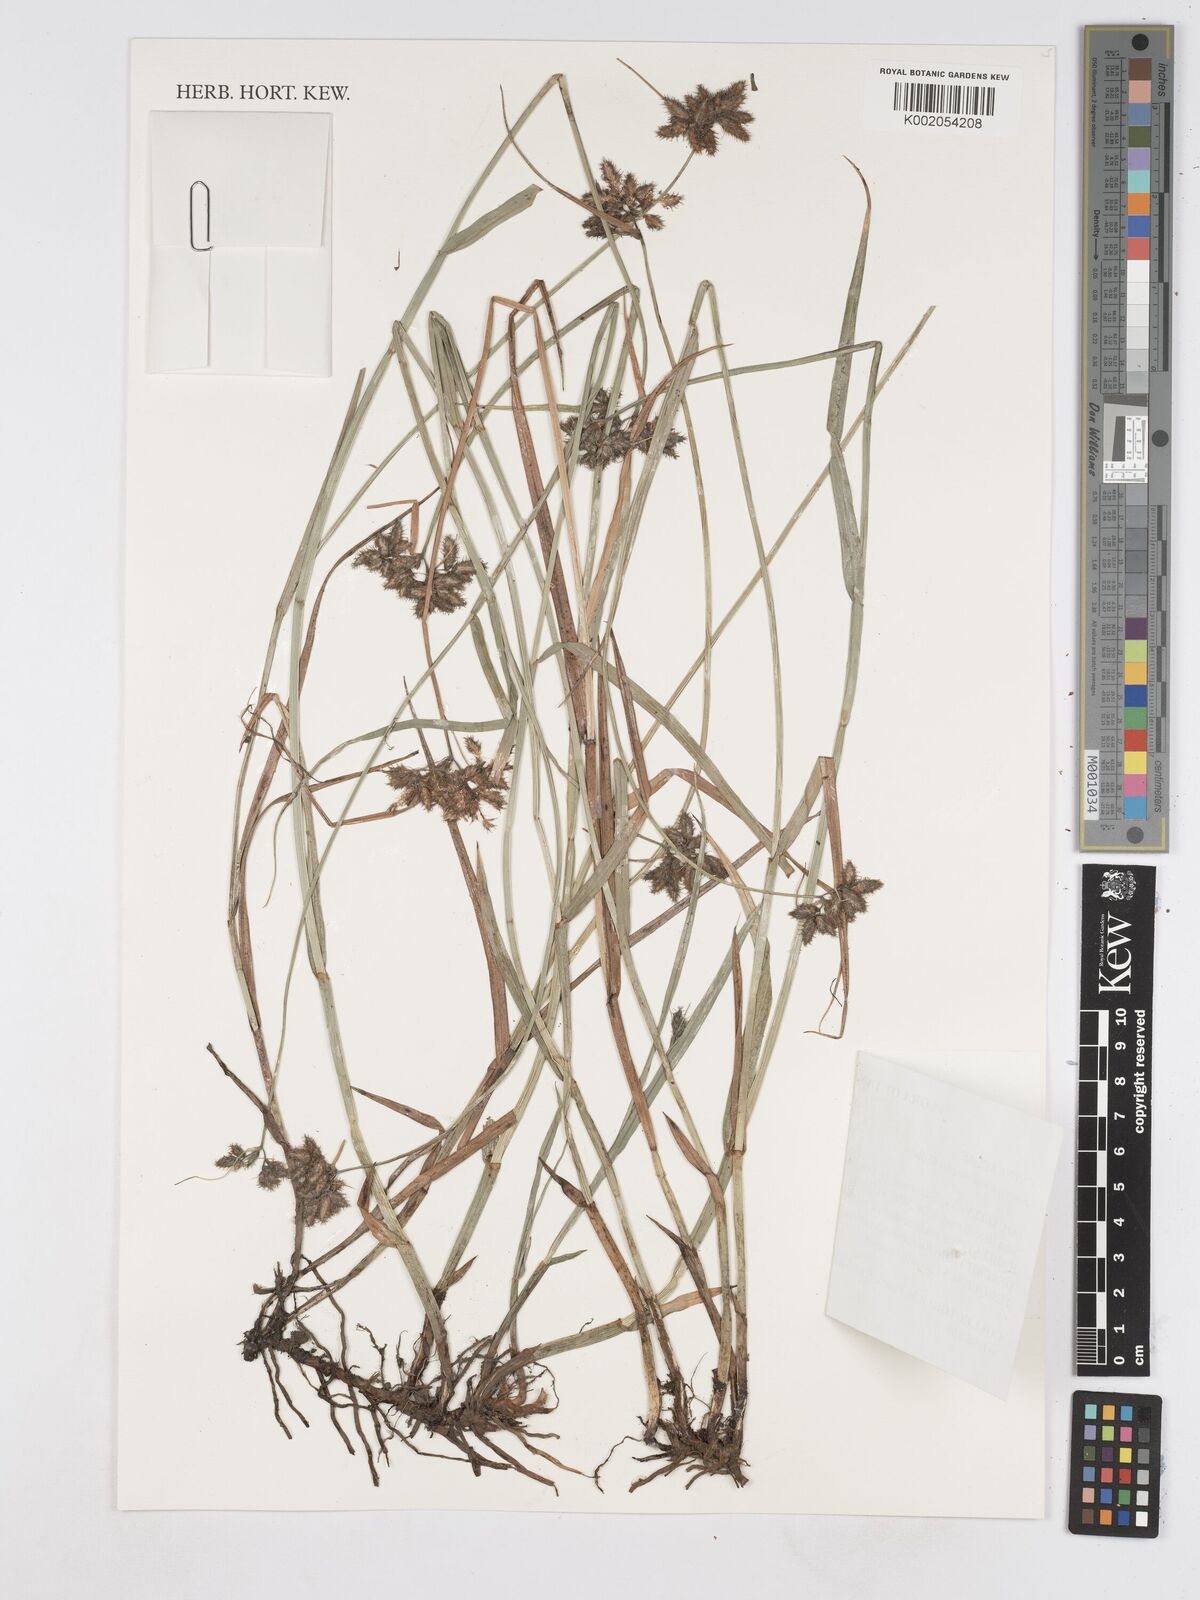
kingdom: Plantae
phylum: Tracheophyta
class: Liliopsida
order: Poales
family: Cyperaceae
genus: Fuirena
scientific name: Fuirena welwitschii
